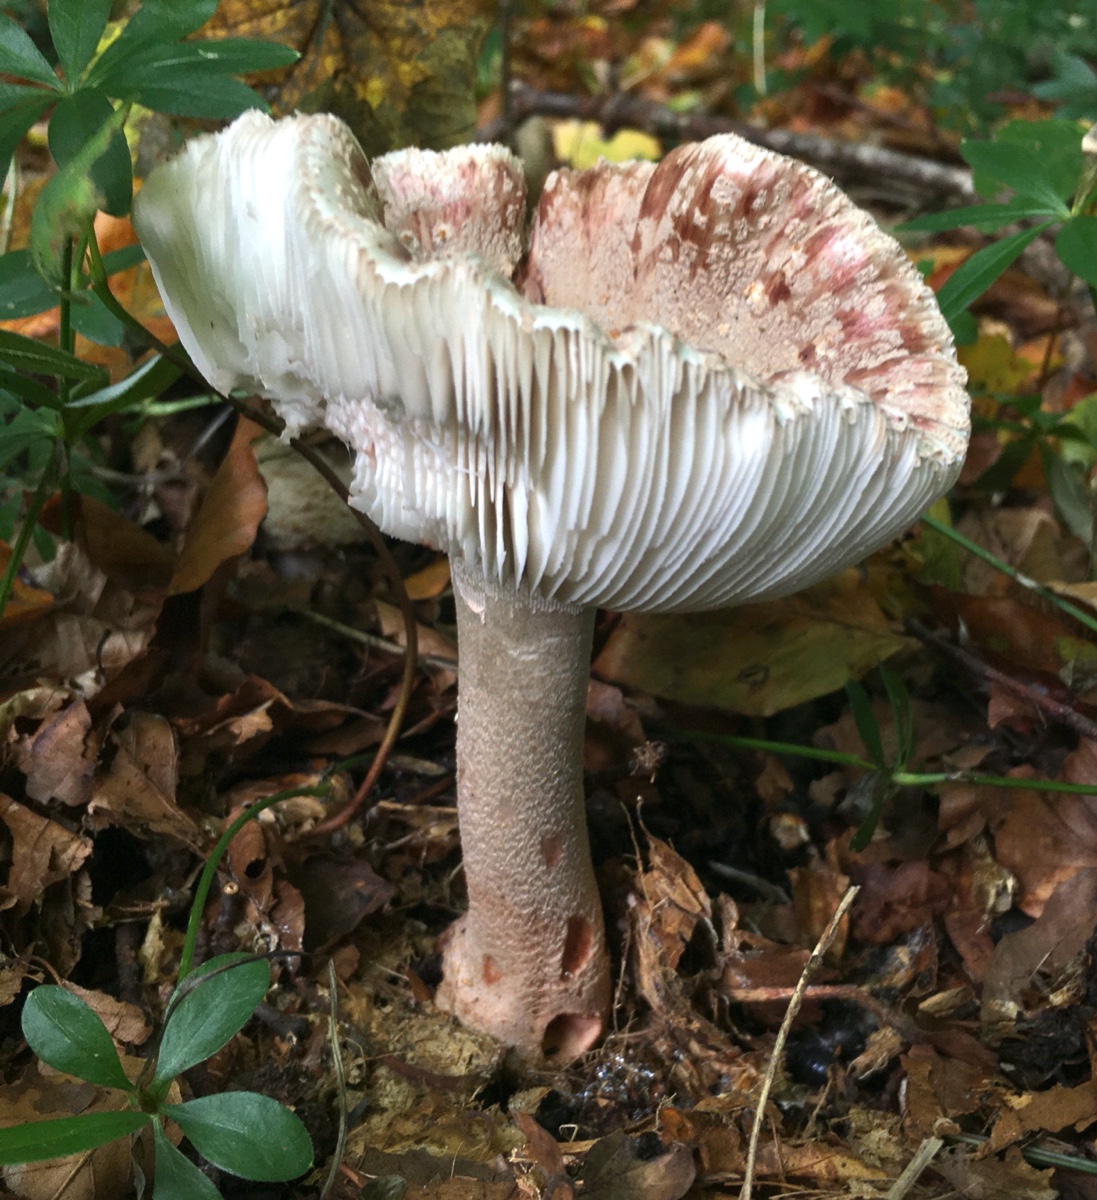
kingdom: Fungi
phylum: Basidiomycota
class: Agaricomycetes
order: Agaricales
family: Amanitaceae
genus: Amanita
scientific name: Amanita rubescens
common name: rødmende fluesvamp
